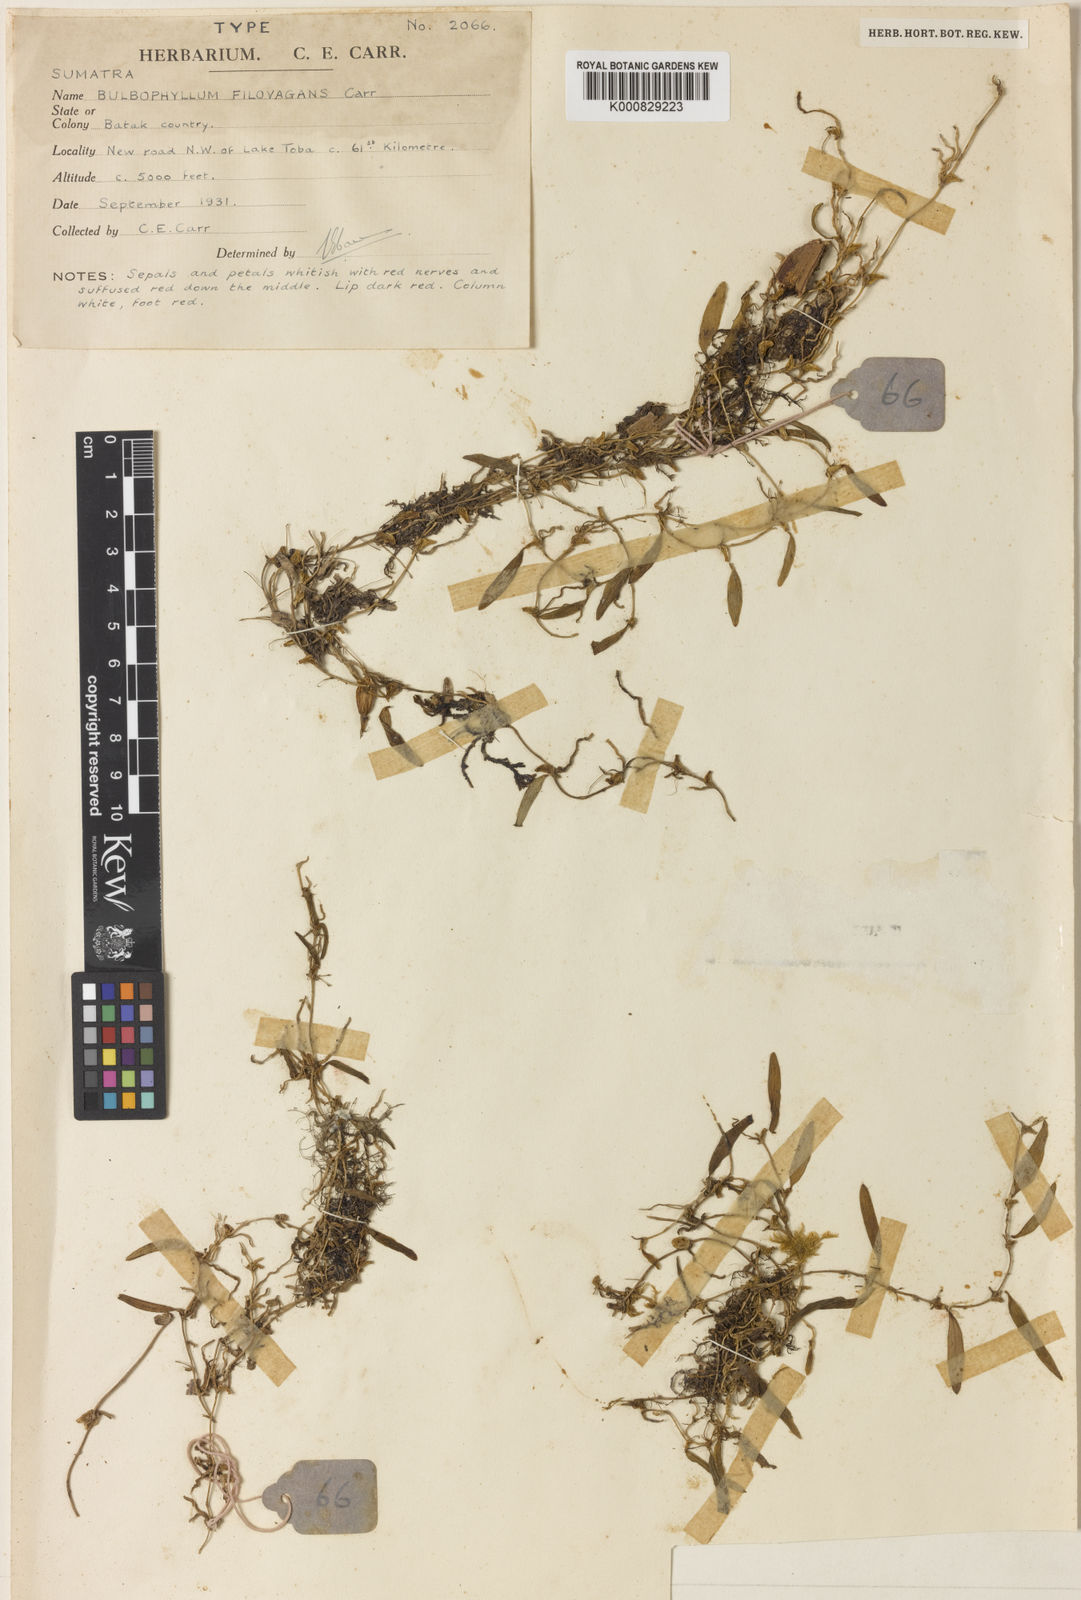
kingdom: Plantae
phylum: Tracheophyta
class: Liliopsida
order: Asparagales
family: Orchidaceae
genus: Bulbophyllum
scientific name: Bulbophyllum filovagans
